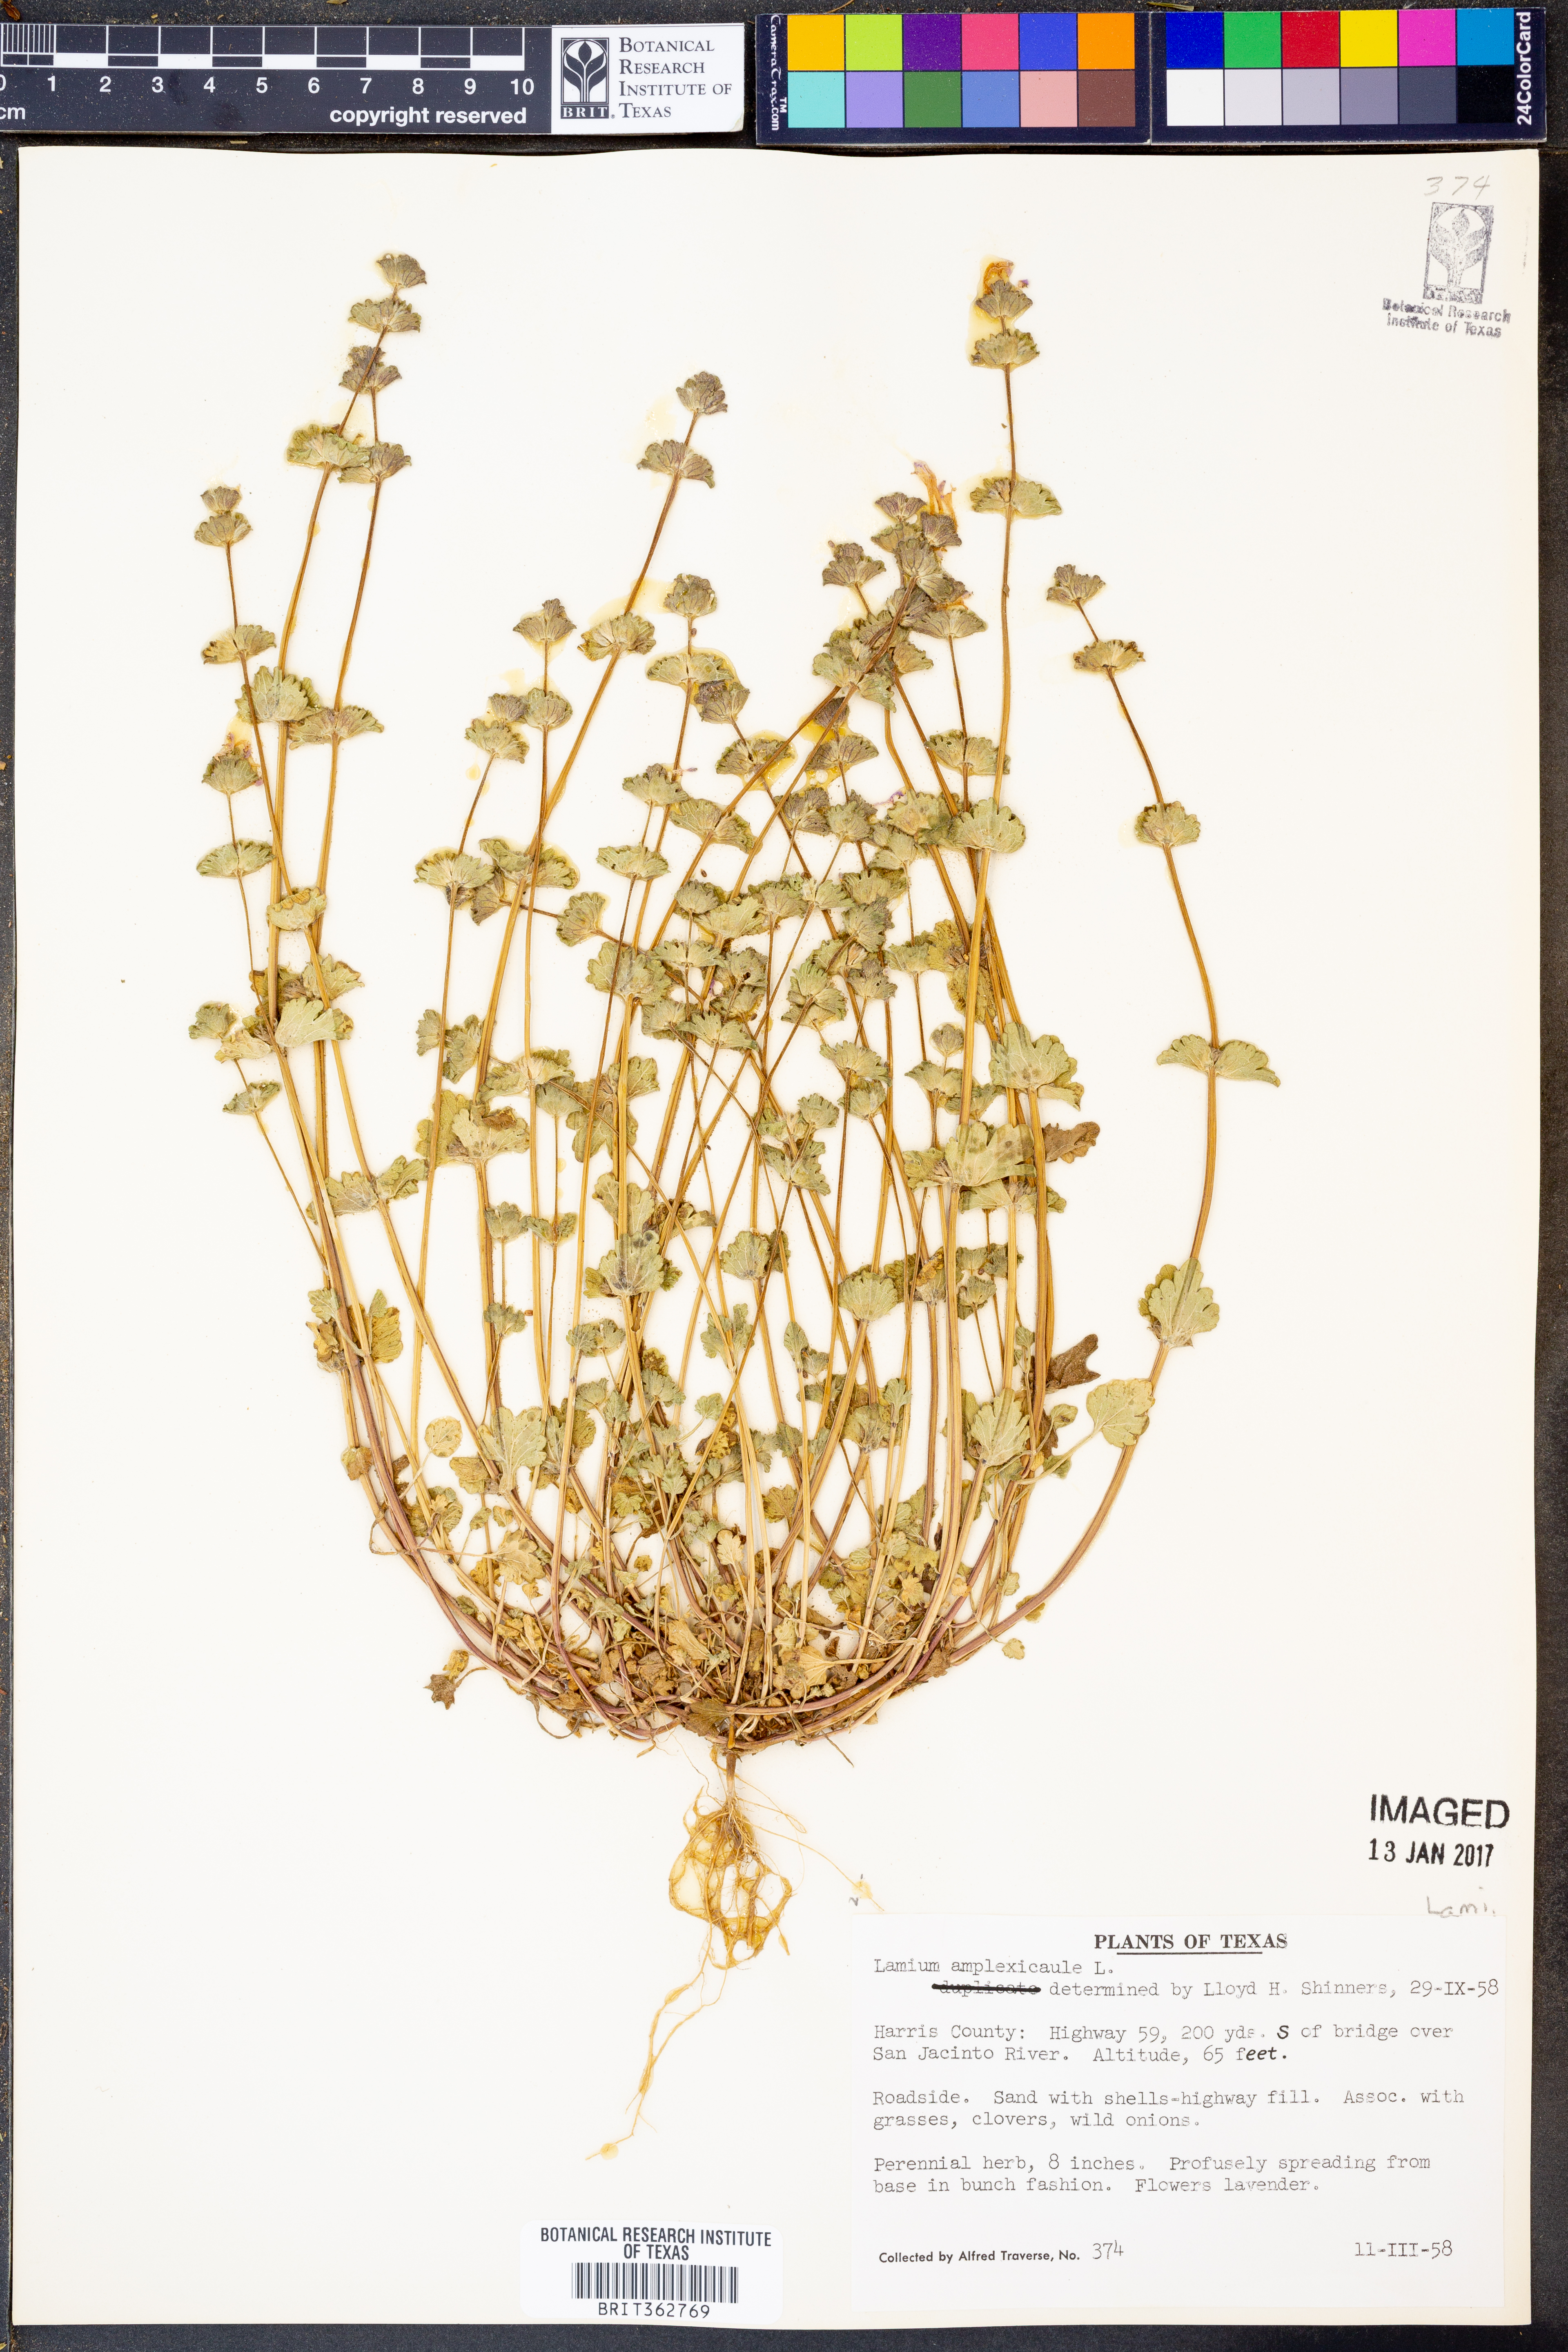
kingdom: Plantae
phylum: Tracheophyta
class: Magnoliopsida
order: Lamiales
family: Lamiaceae
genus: Lamium
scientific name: Lamium amplexicaule
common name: Henbit dead-nettle
